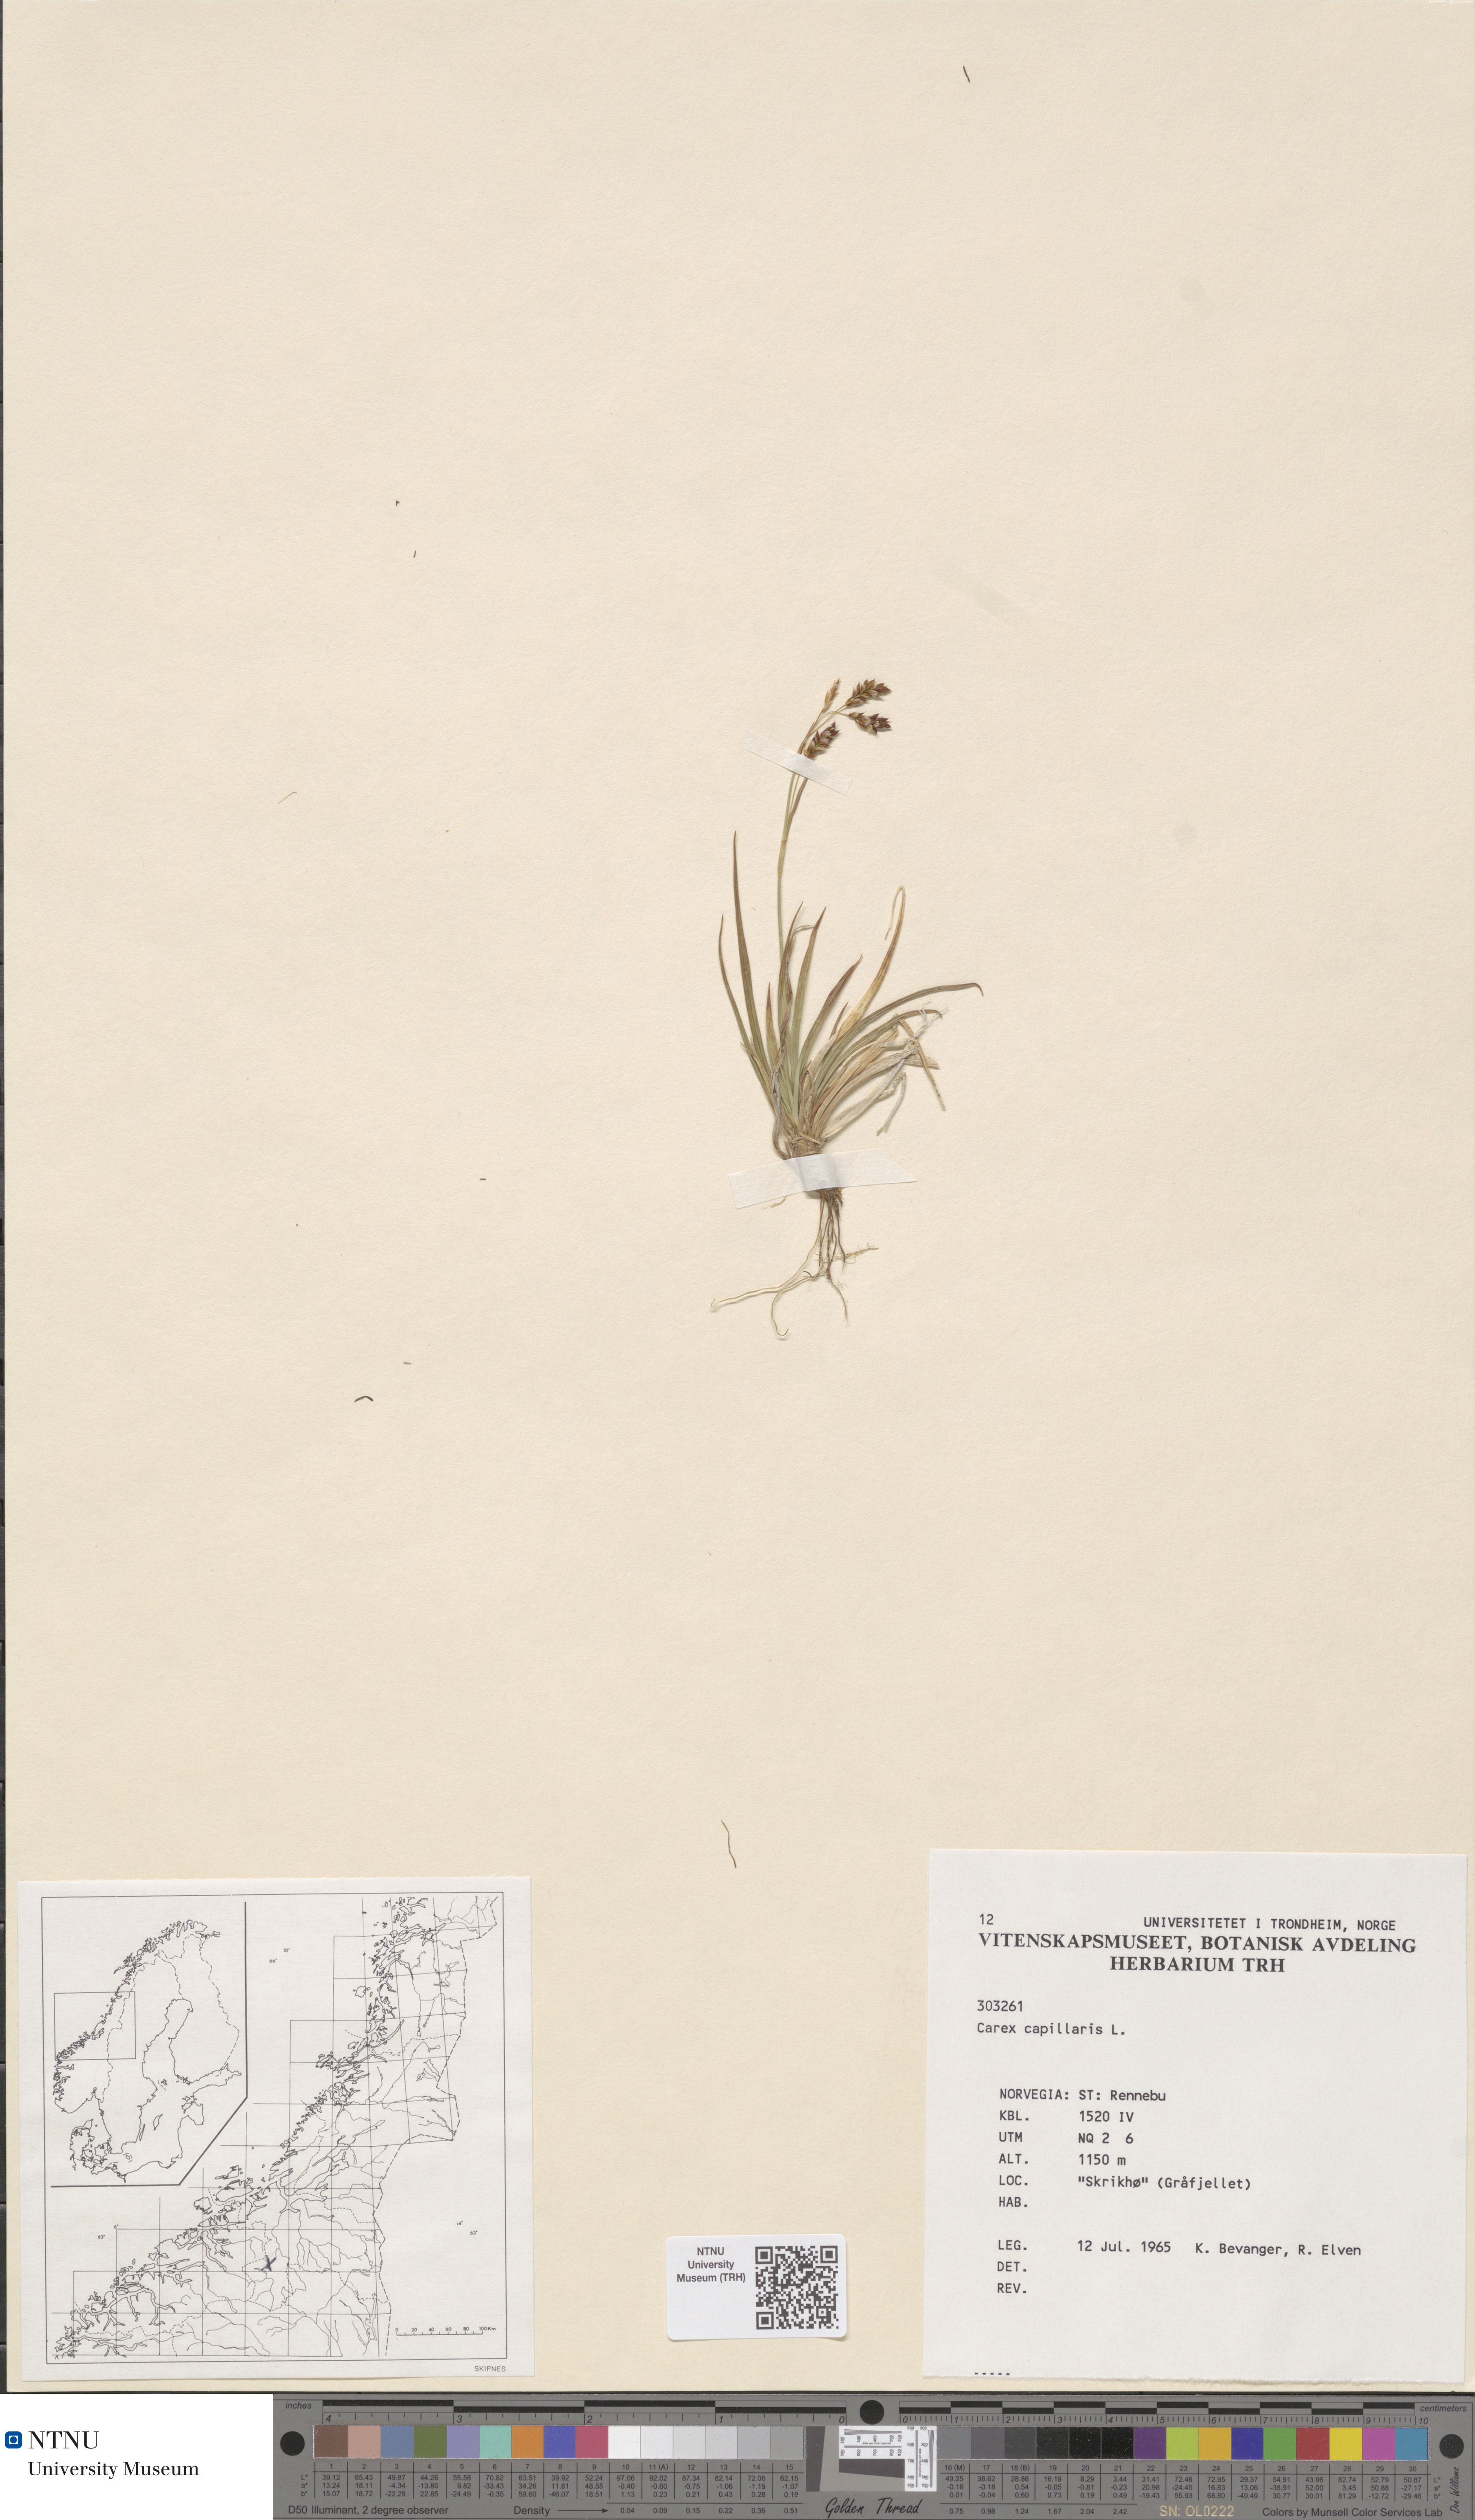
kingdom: Plantae
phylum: Tracheophyta
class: Liliopsida
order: Poales
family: Cyperaceae
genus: Carex
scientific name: Carex capillaris
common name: Hair sedge
